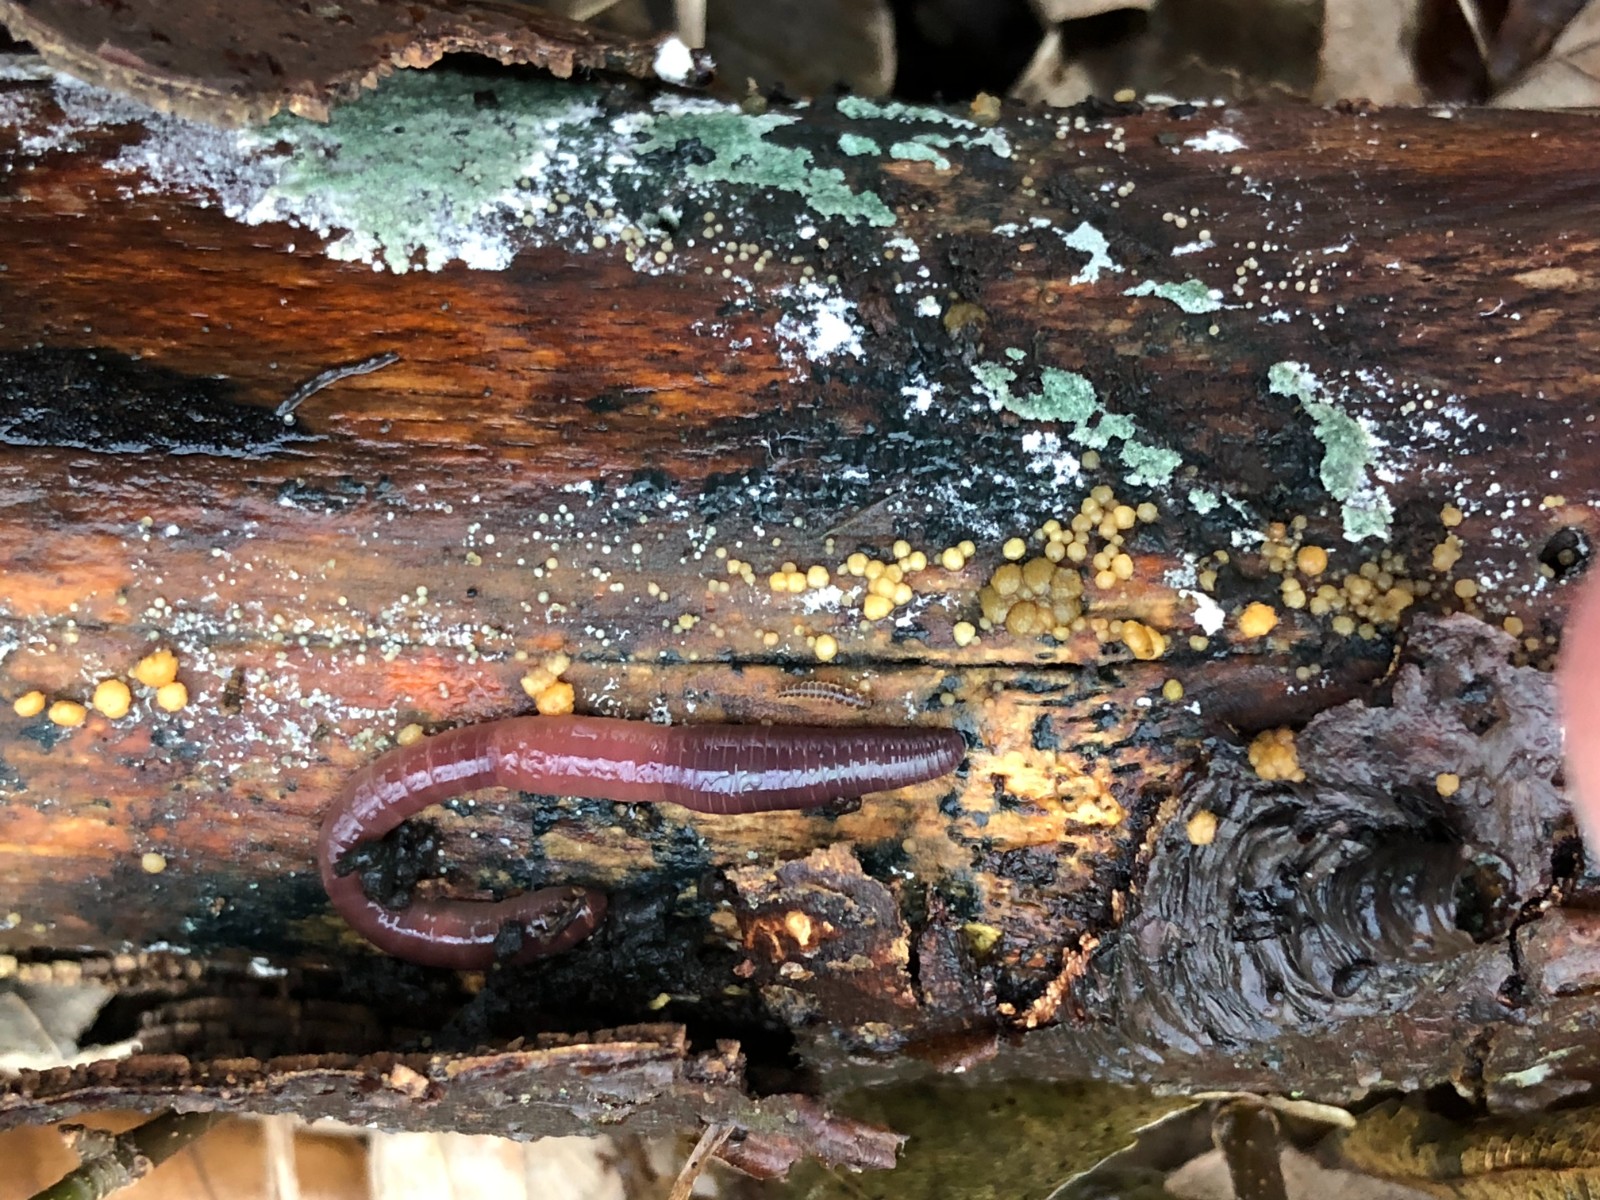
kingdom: Fungi
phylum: Ascomycota
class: Sordariomycetes
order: Hypocreales
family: Hypocreaceae
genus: Trichoderma
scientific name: Trichoderma
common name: kødkerne
